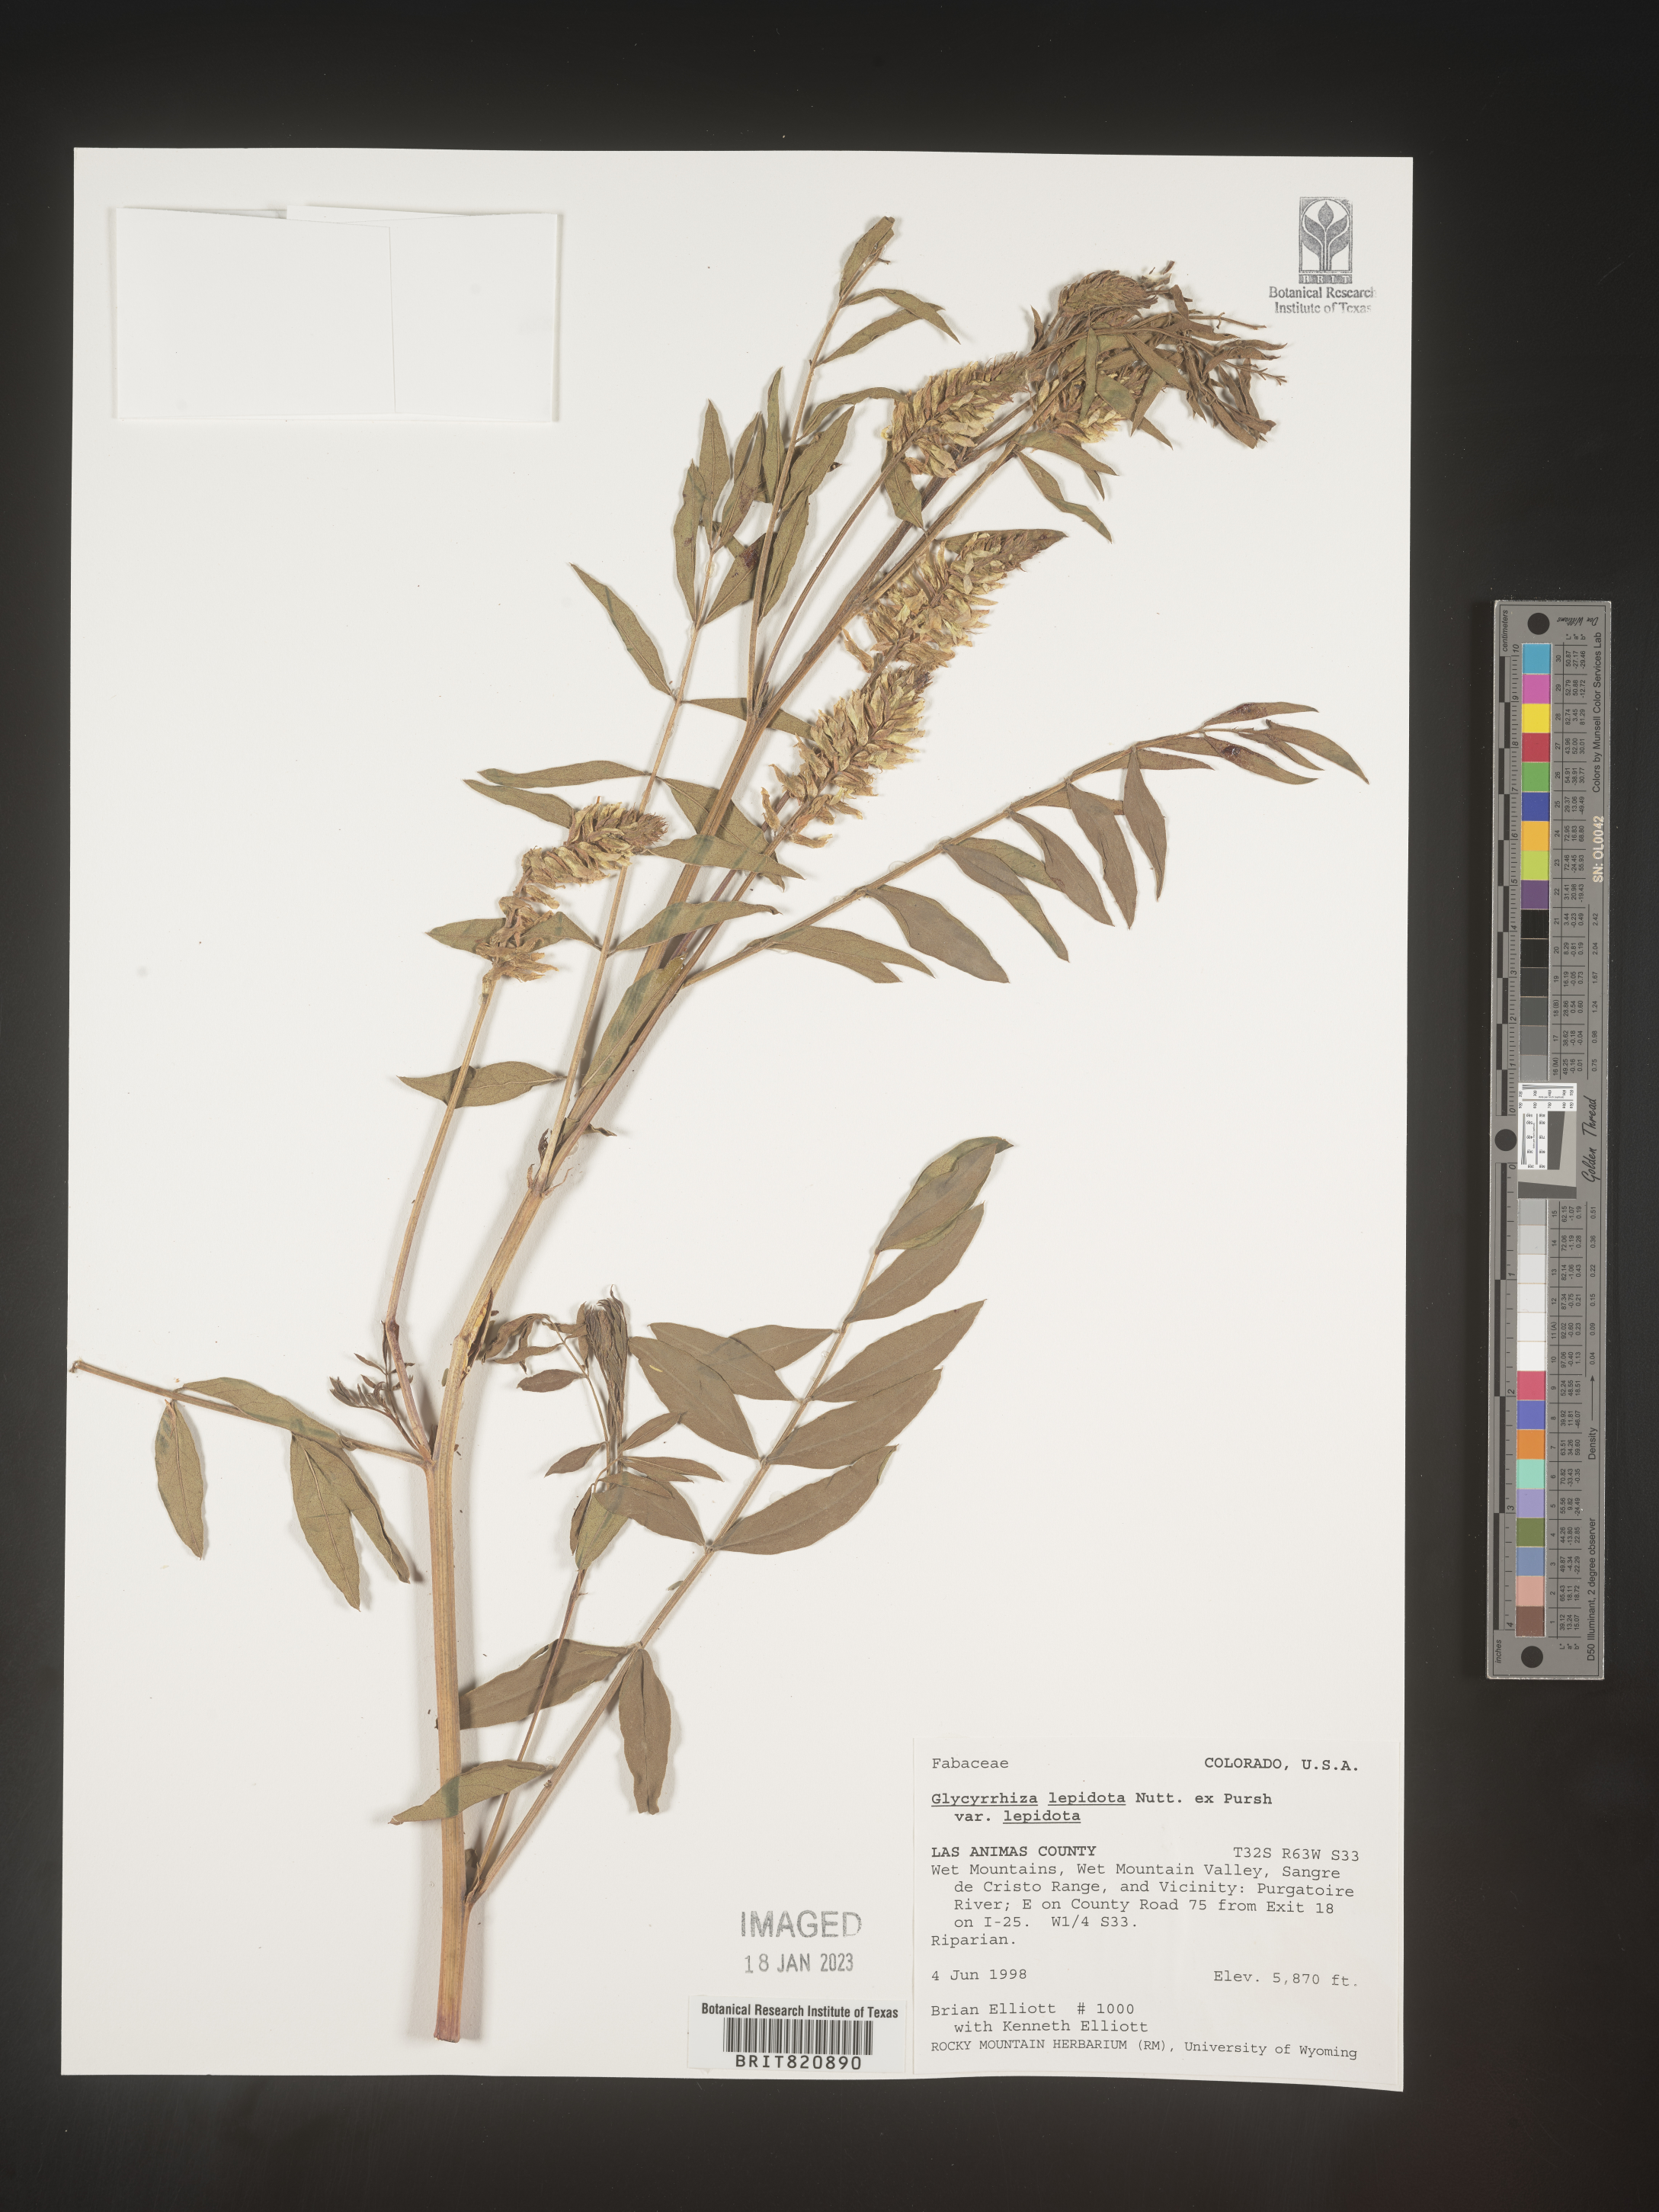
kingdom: Plantae
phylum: Tracheophyta
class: Magnoliopsida
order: Fabales
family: Fabaceae
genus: Glycyrrhiza
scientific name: Glycyrrhiza lepidota
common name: American liquorice
